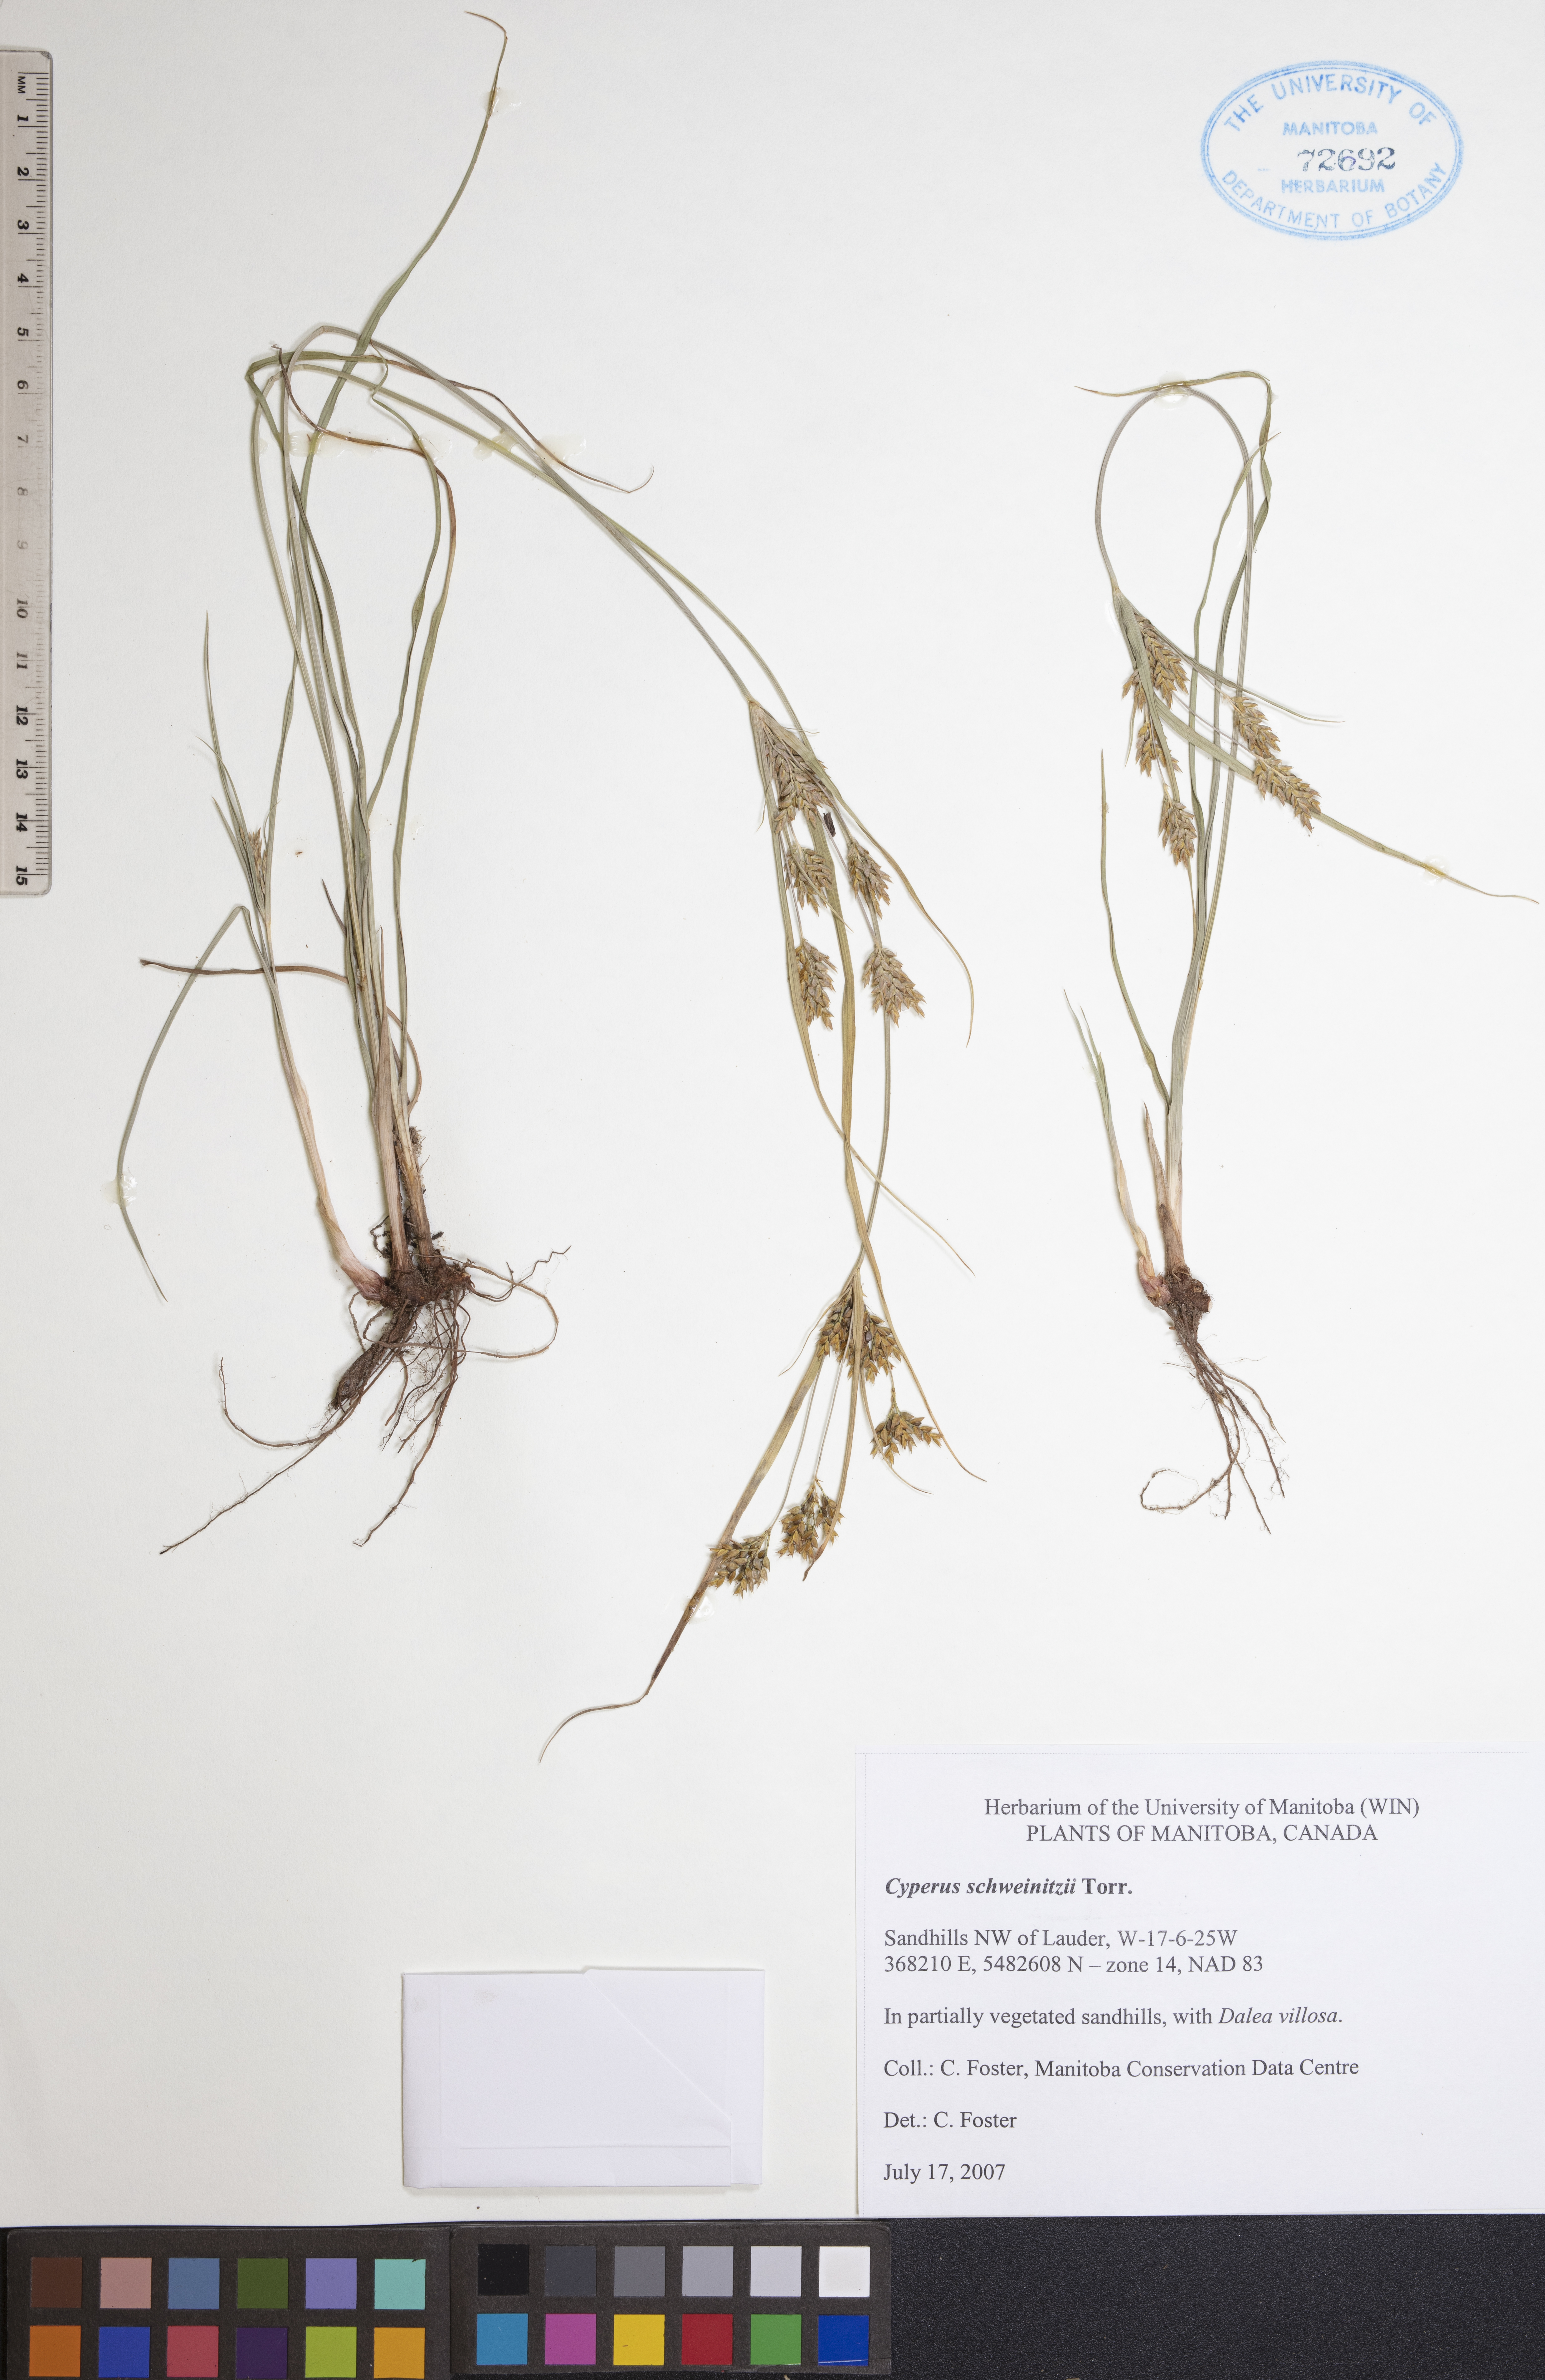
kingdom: Plantae
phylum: Tracheophyta
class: Liliopsida
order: Poales
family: Cyperaceae
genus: Cyperus
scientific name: Cyperus schweinitzii
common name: Schweinitz's cyperus
